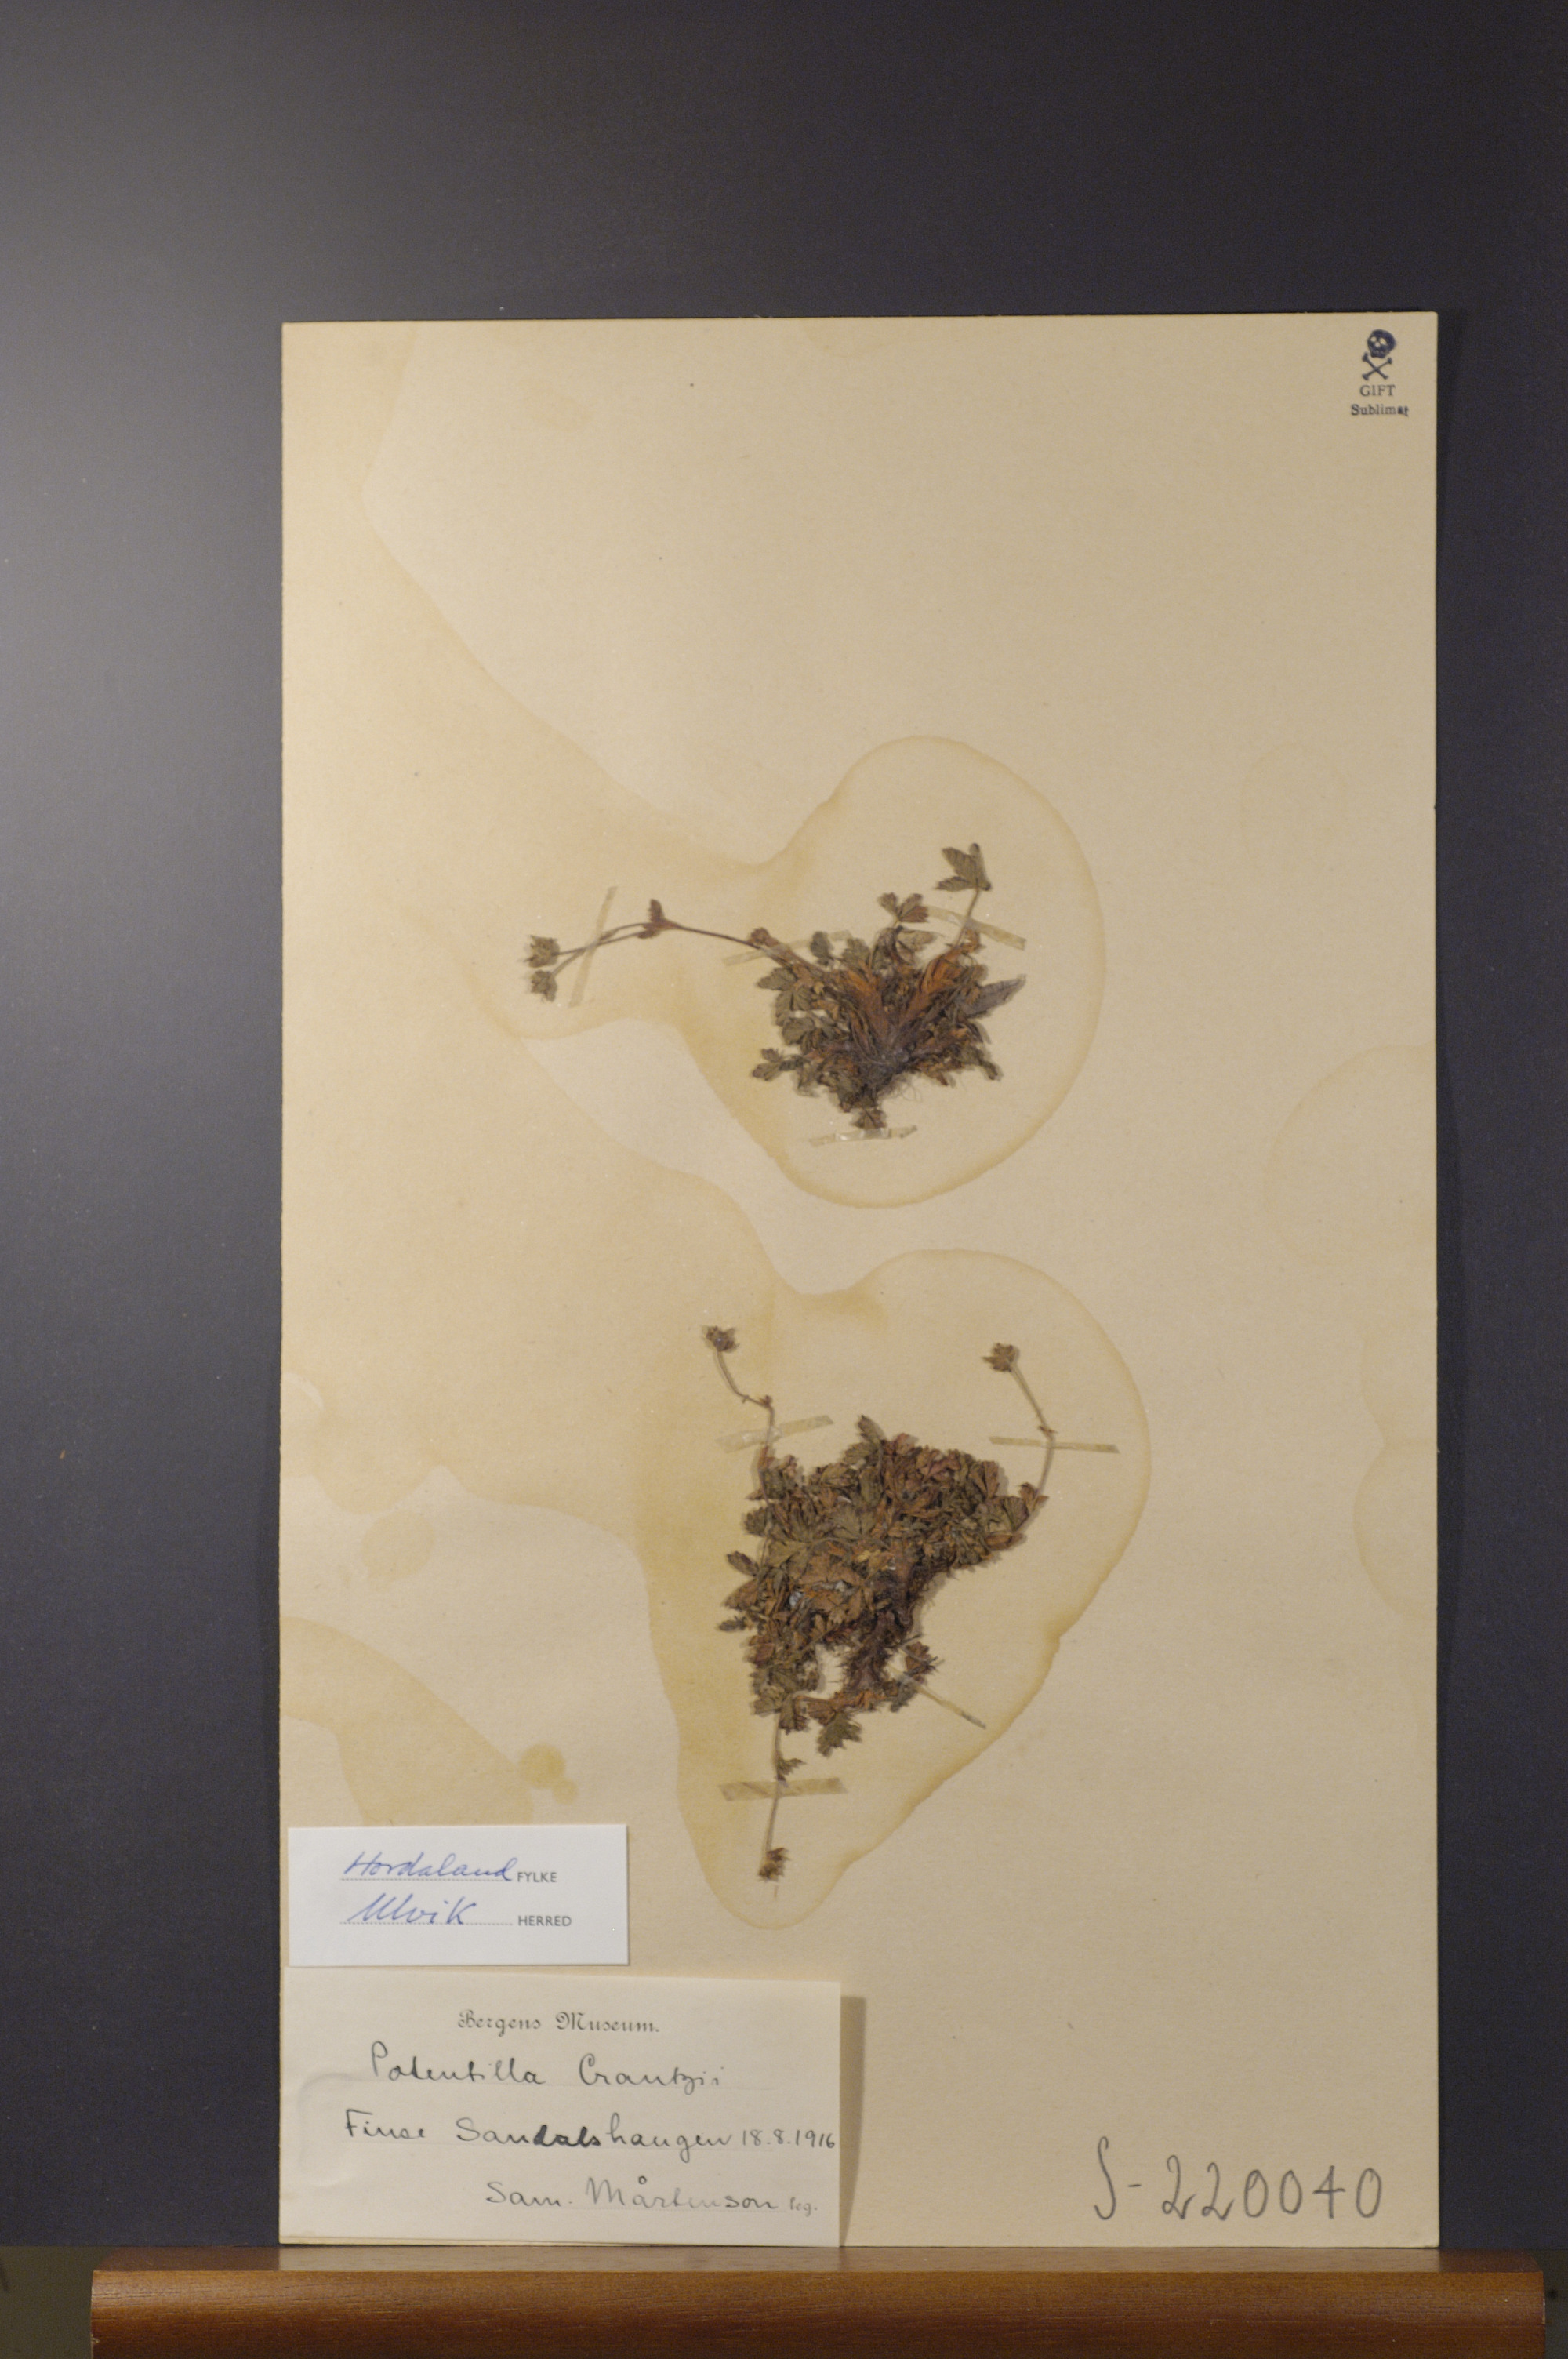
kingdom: Plantae
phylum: Tracheophyta
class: Magnoliopsida
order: Rosales
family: Rosaceae
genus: Potentilla
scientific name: Potentilla crantzii
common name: Alpine cinquefoil
